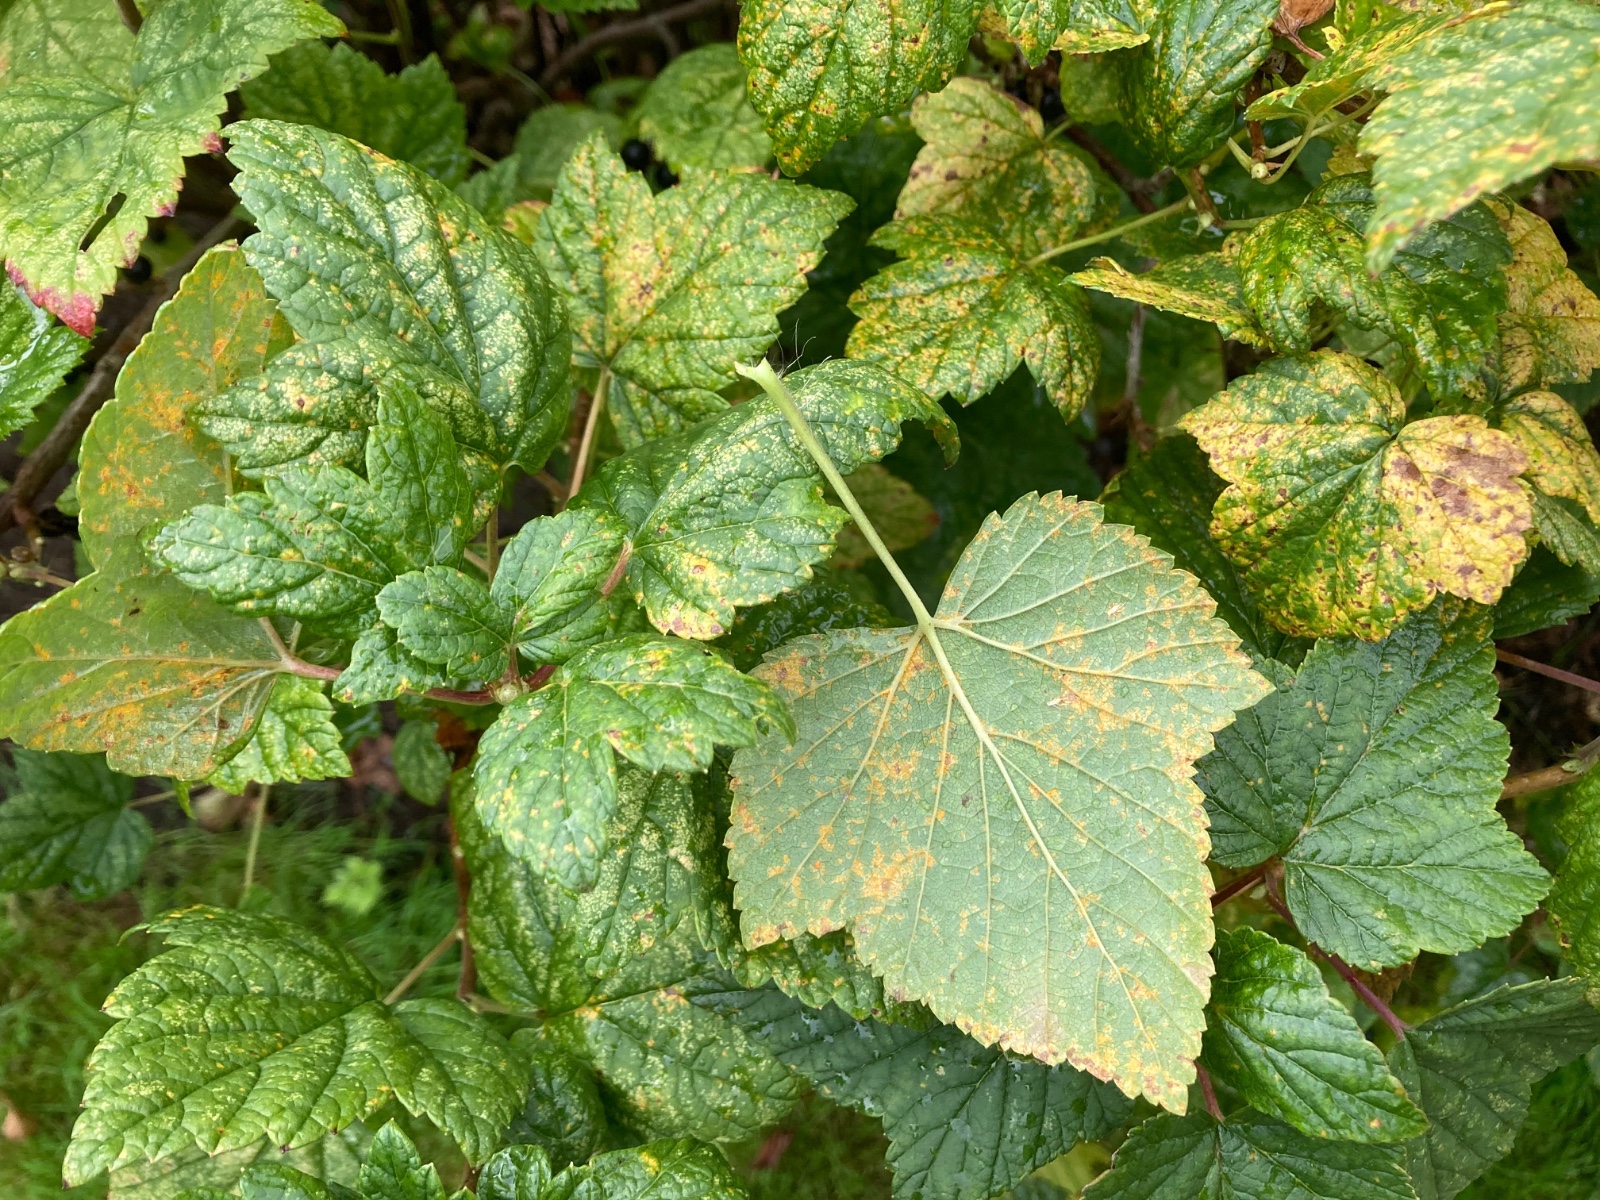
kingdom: Fungi
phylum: Basidiomycota
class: Pucciniomycetes
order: Pucciniales
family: Cronartiaceae
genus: Cronartium
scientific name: Cronartium ribicola
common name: solbær-filtrust
